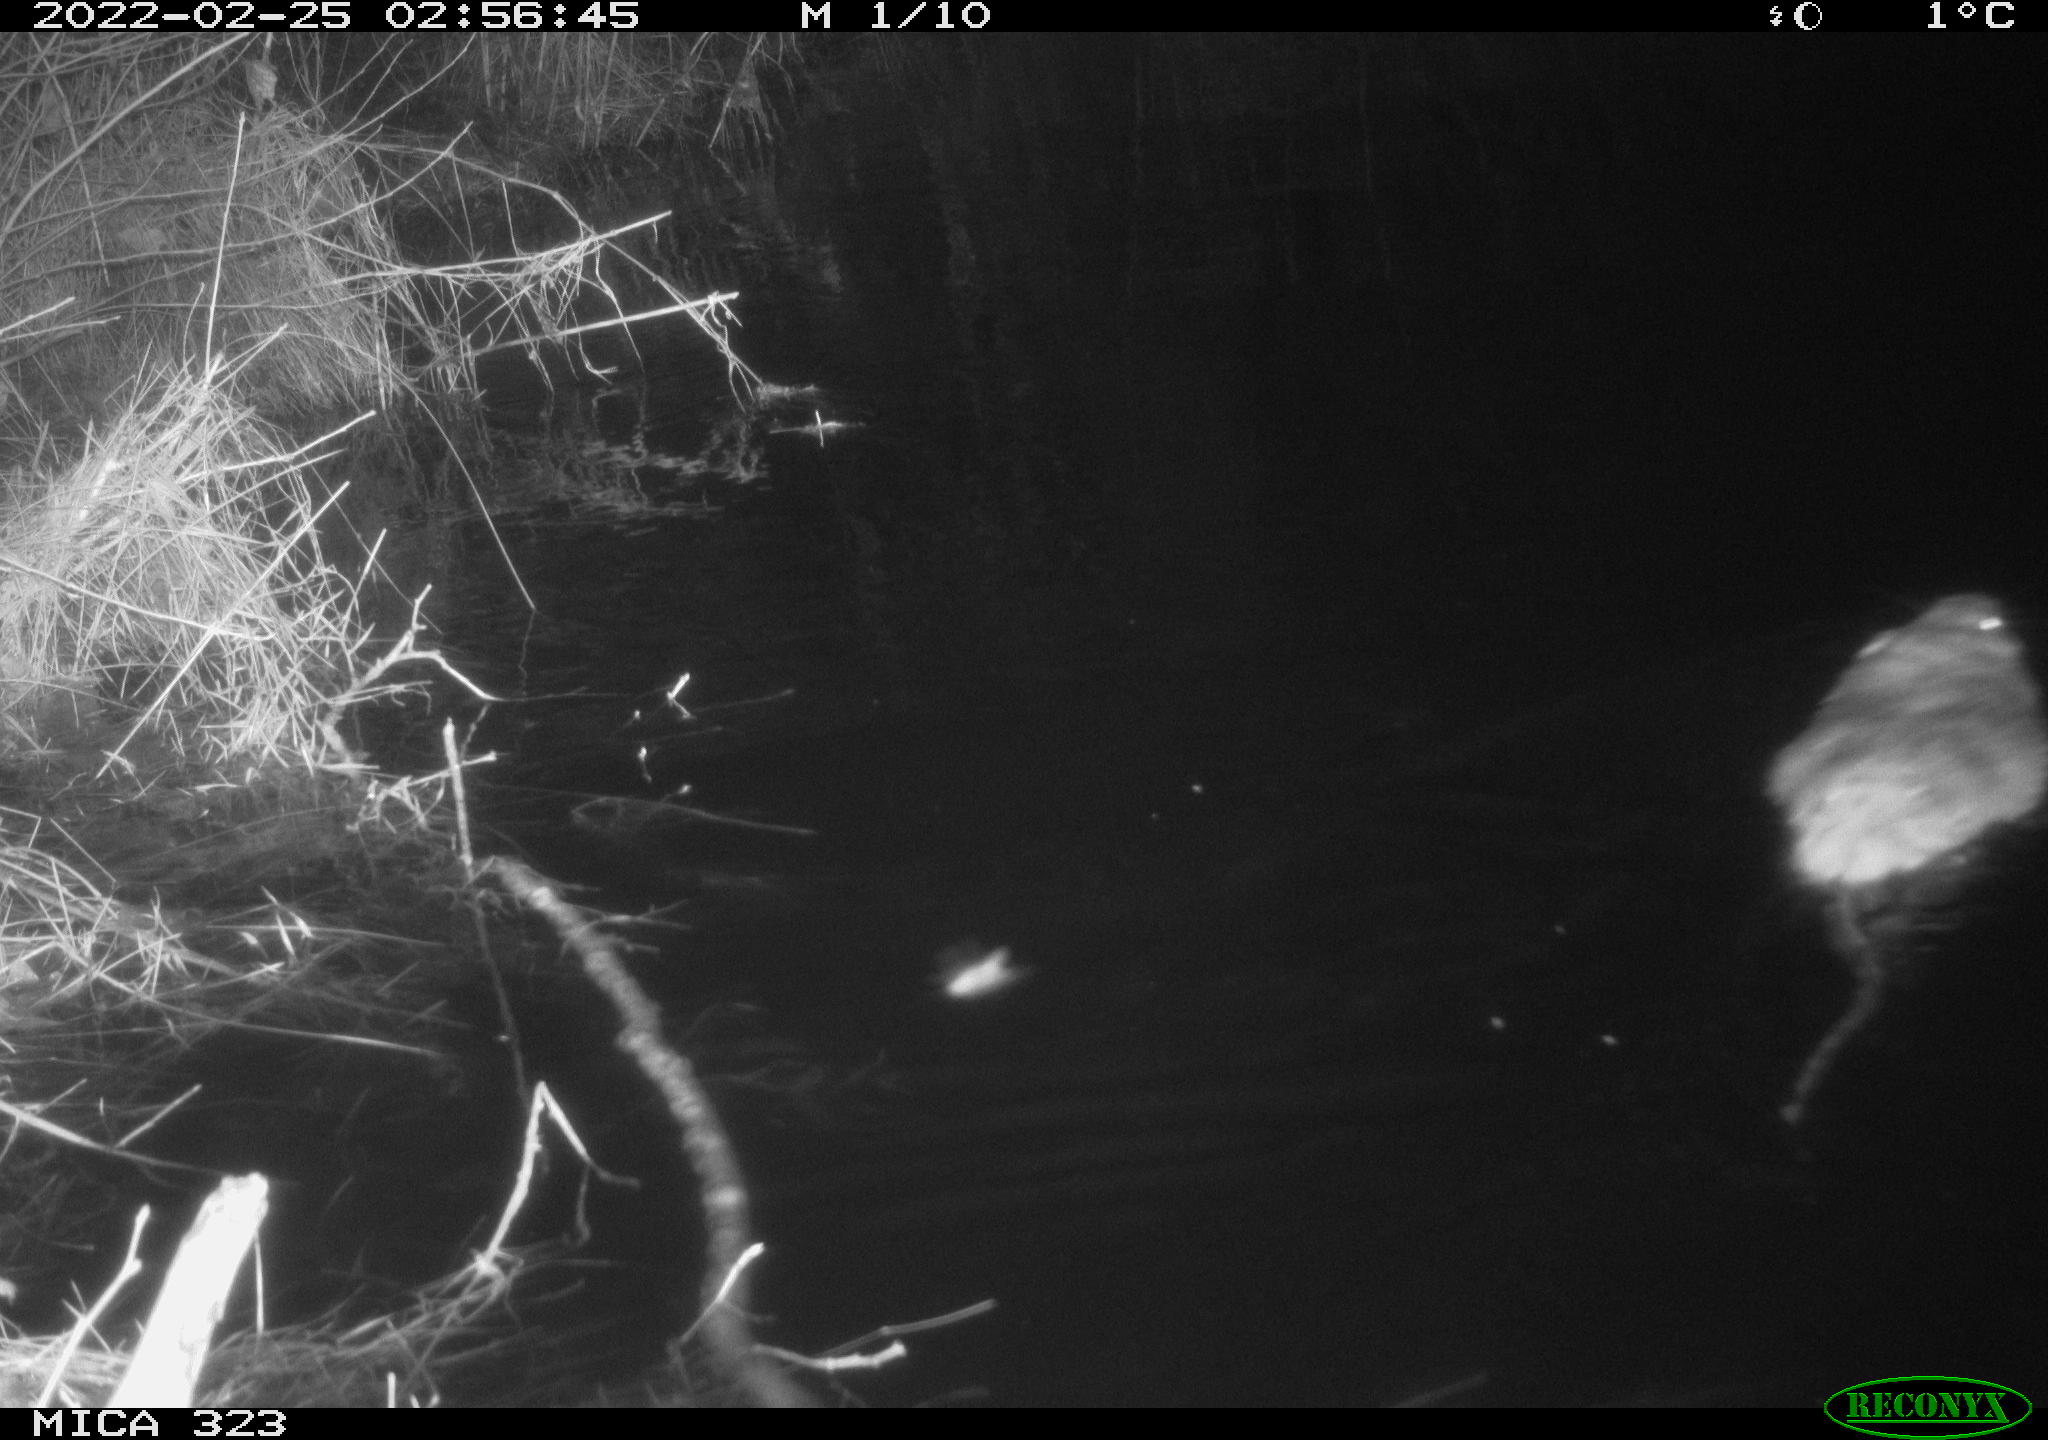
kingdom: Animalia
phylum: Chordata
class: Mammalia
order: Rodentia
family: Cricetidae
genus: Ondatra
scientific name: Ondatra zibethicus
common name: Muskrat
